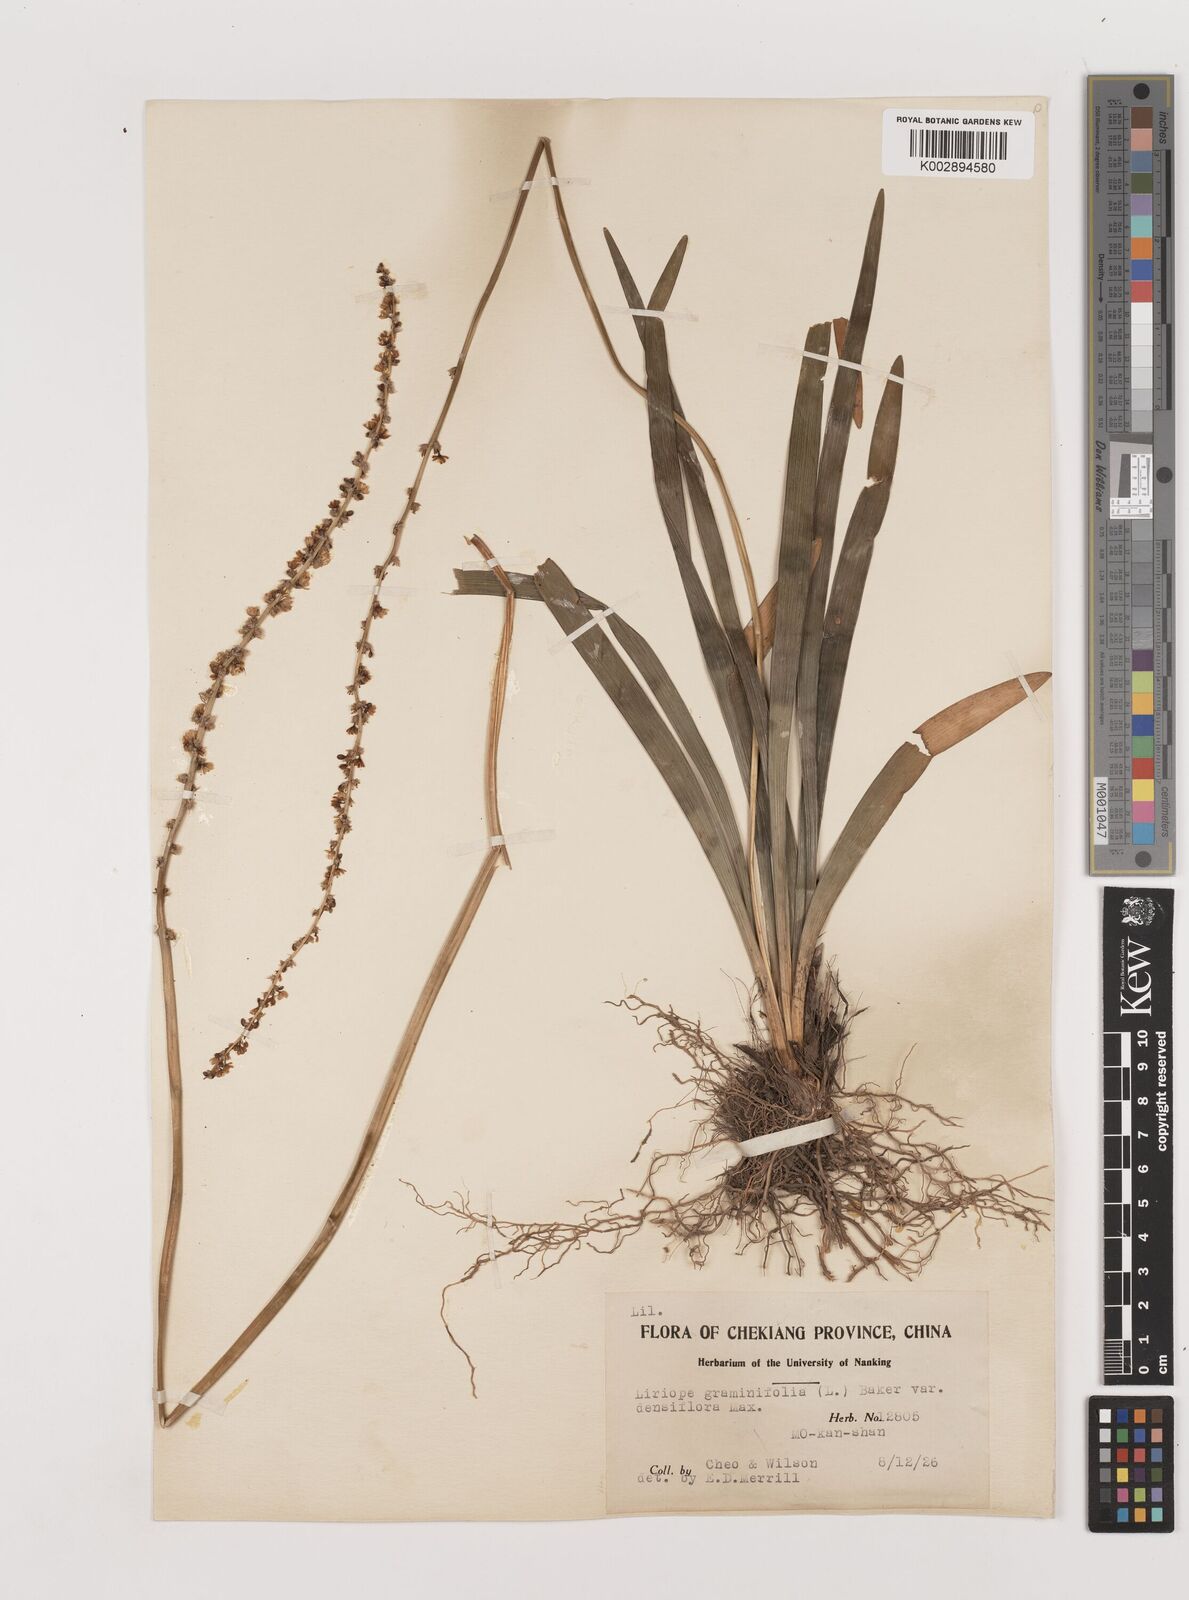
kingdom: Plantae
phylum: Tracheophyta
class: Liliopsida
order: Asparagales
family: Asparagaceae
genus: Liriope
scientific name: Liriope muscari
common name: Big blue lilyturf
